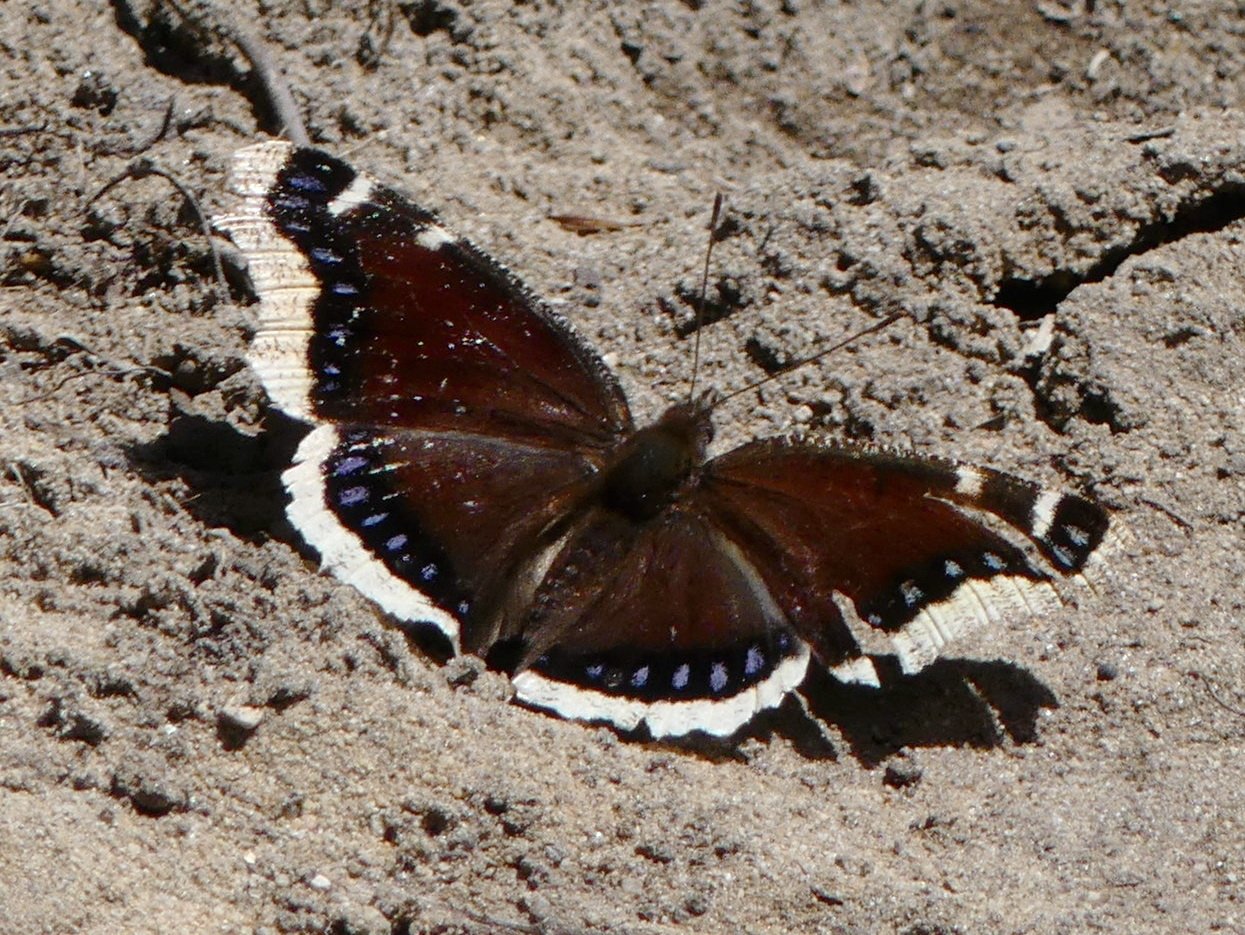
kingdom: Animalia
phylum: Arthropoda
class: Insecta
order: Lepidoptera
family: Nymphalidae
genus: Nymphalis
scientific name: Nymphalis antiopa
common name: Mourning Cloak
